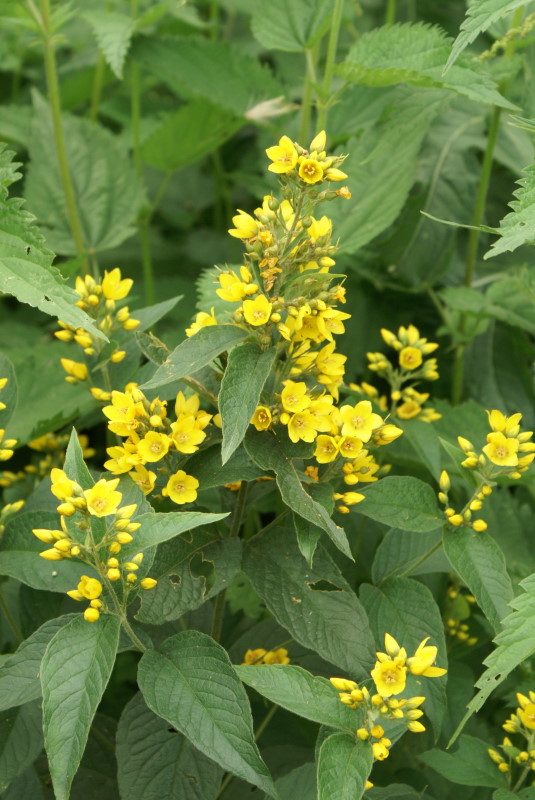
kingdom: Plantae
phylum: Tracheophyta
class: Magnoliopsida
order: Ericales
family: Primulaceae
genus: Lysimachia
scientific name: Lysimachia vulgaris
